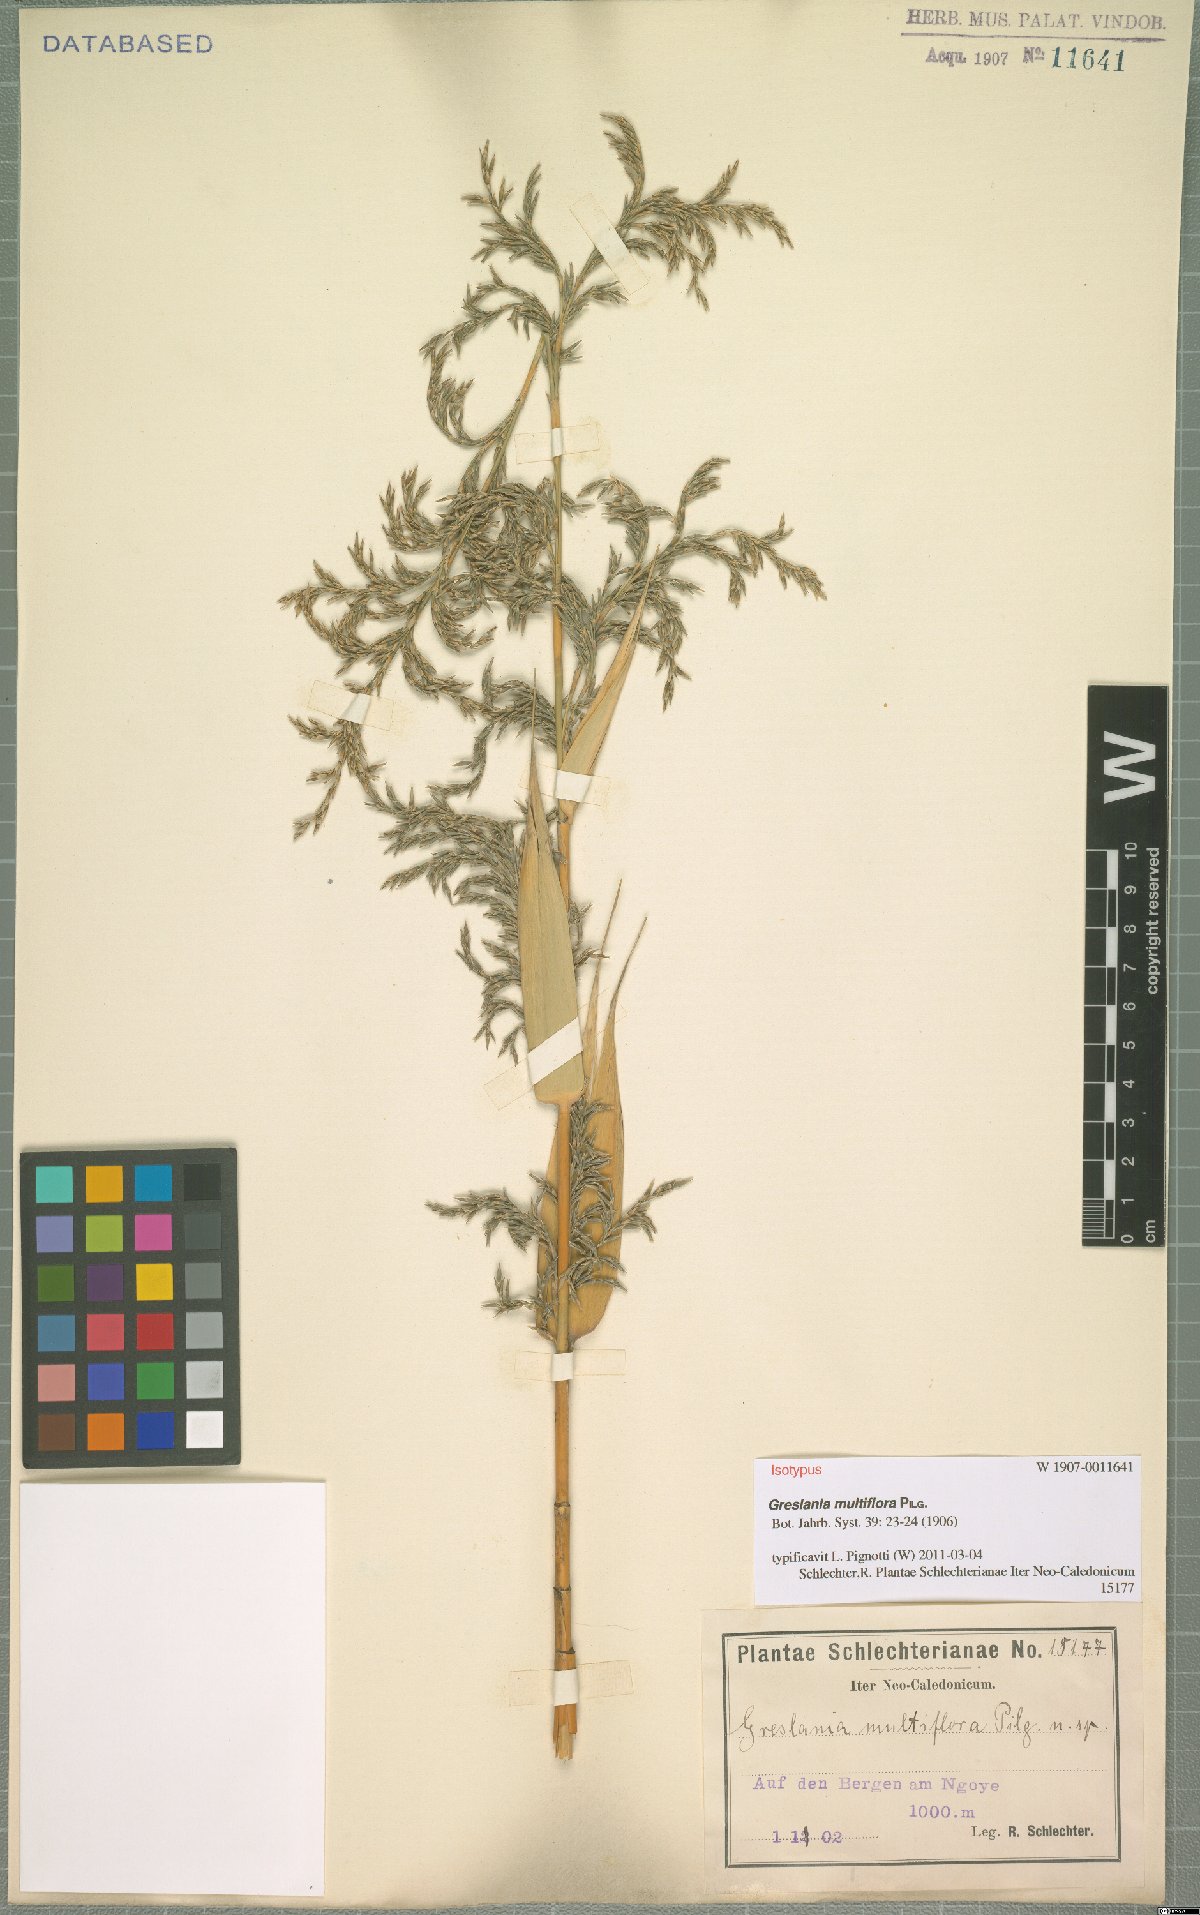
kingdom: Plantae
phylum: Tracheophyta
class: Liliopsida
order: Poales
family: Poaceae
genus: Greslania
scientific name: Greslania circinata
